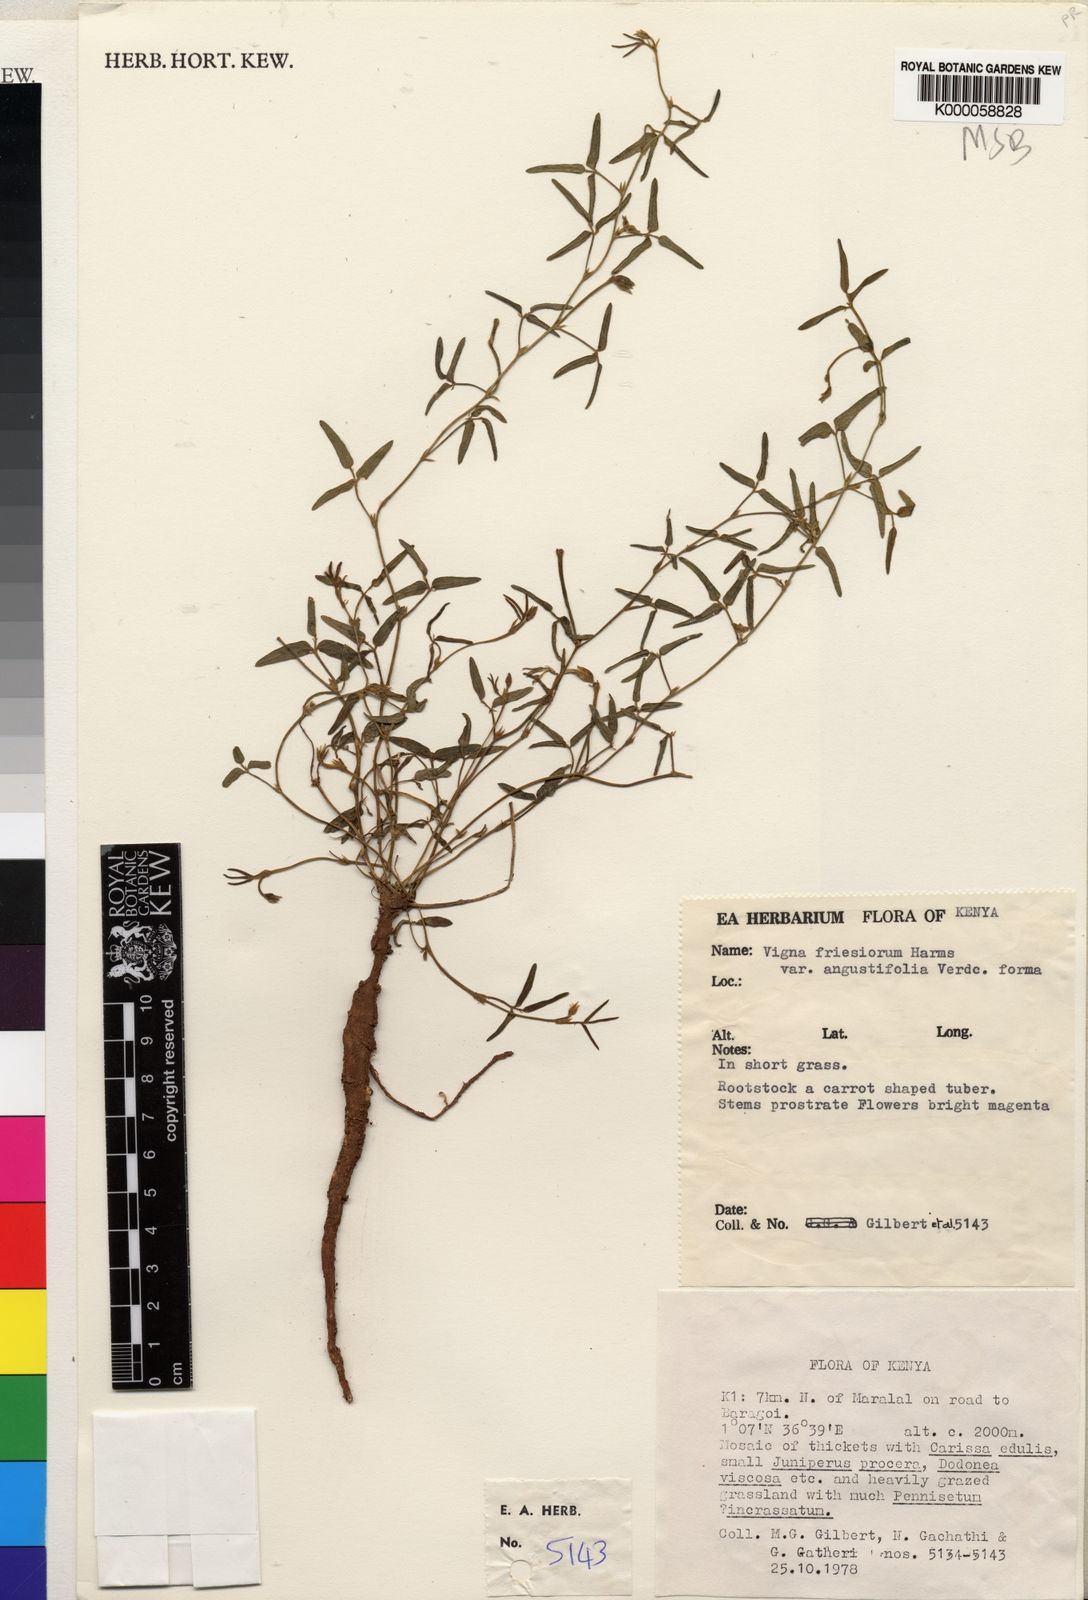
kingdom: Plantae
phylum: Tracheophyta
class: Magnoliopsida
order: Fabales
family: Fabaceae
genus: Vigna
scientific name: Vigna friesiorum
